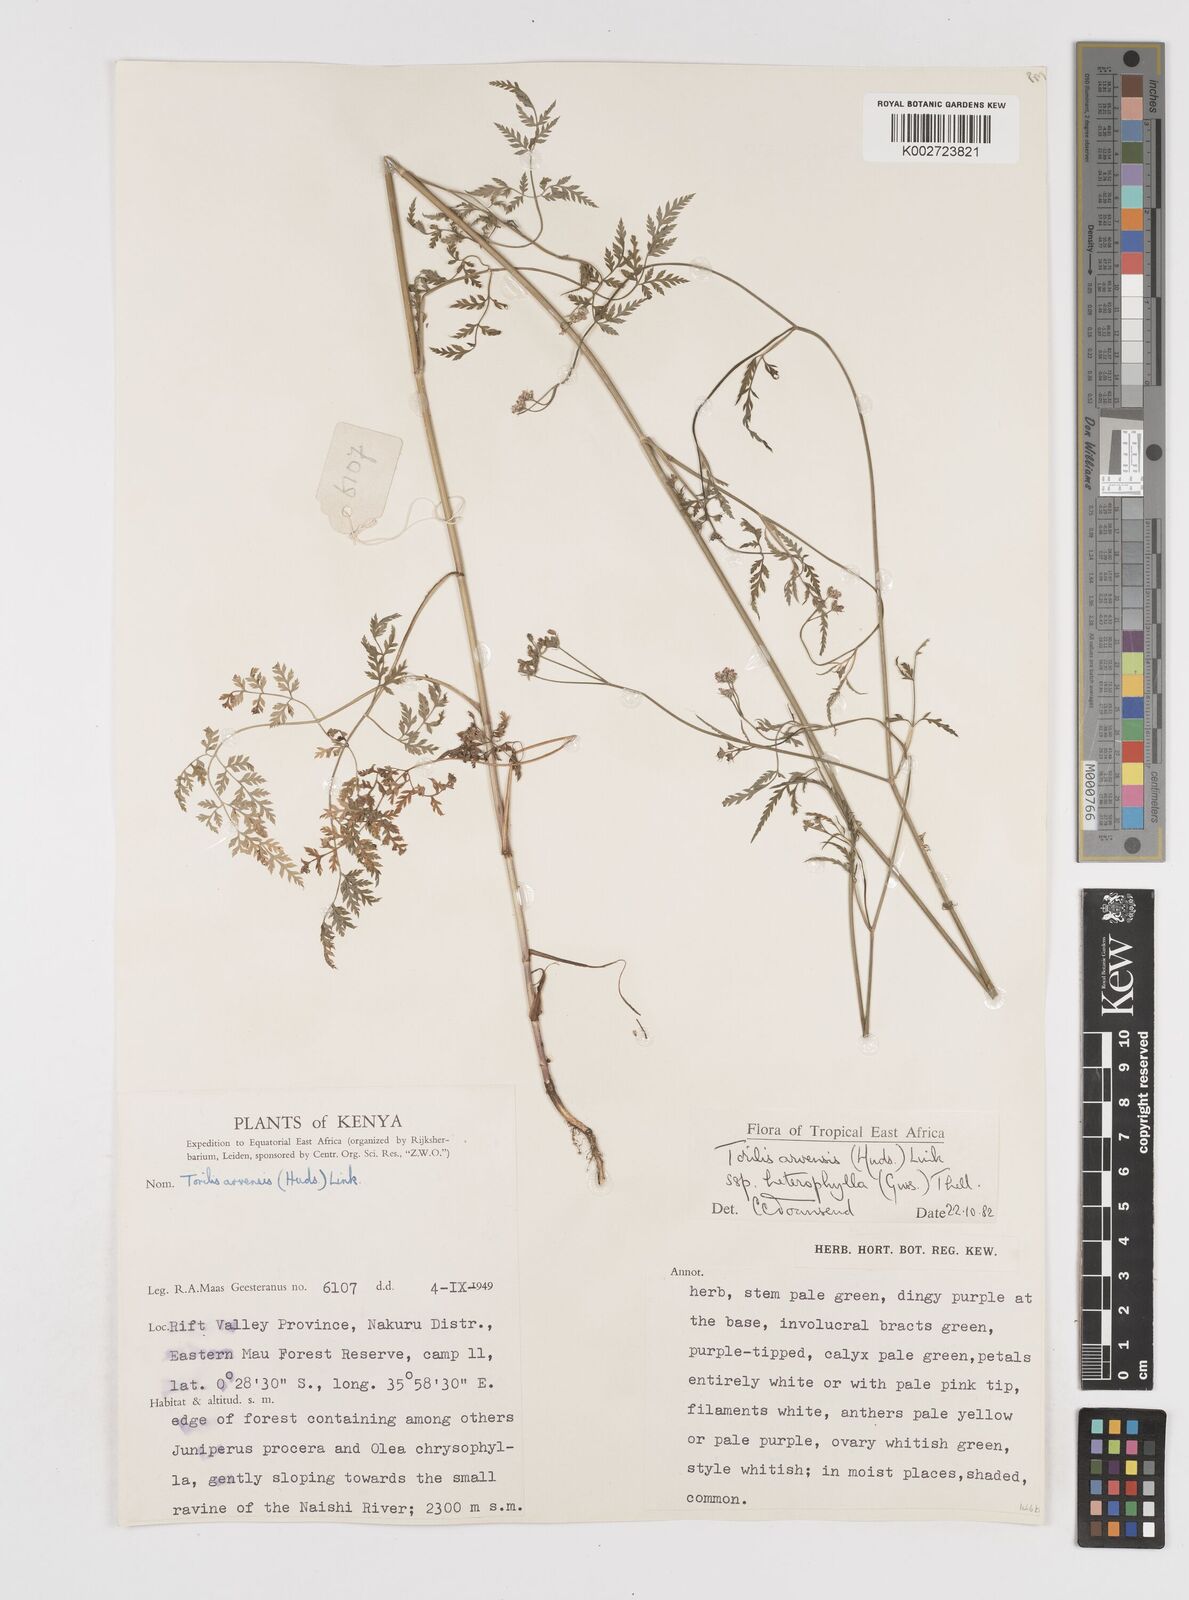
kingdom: Plantae
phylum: Tracheophyta
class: Magnoliopsida
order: Apiales
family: Apiaceae
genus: Torilis
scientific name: Torilis arvensis
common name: Spreading hedge-parsley
